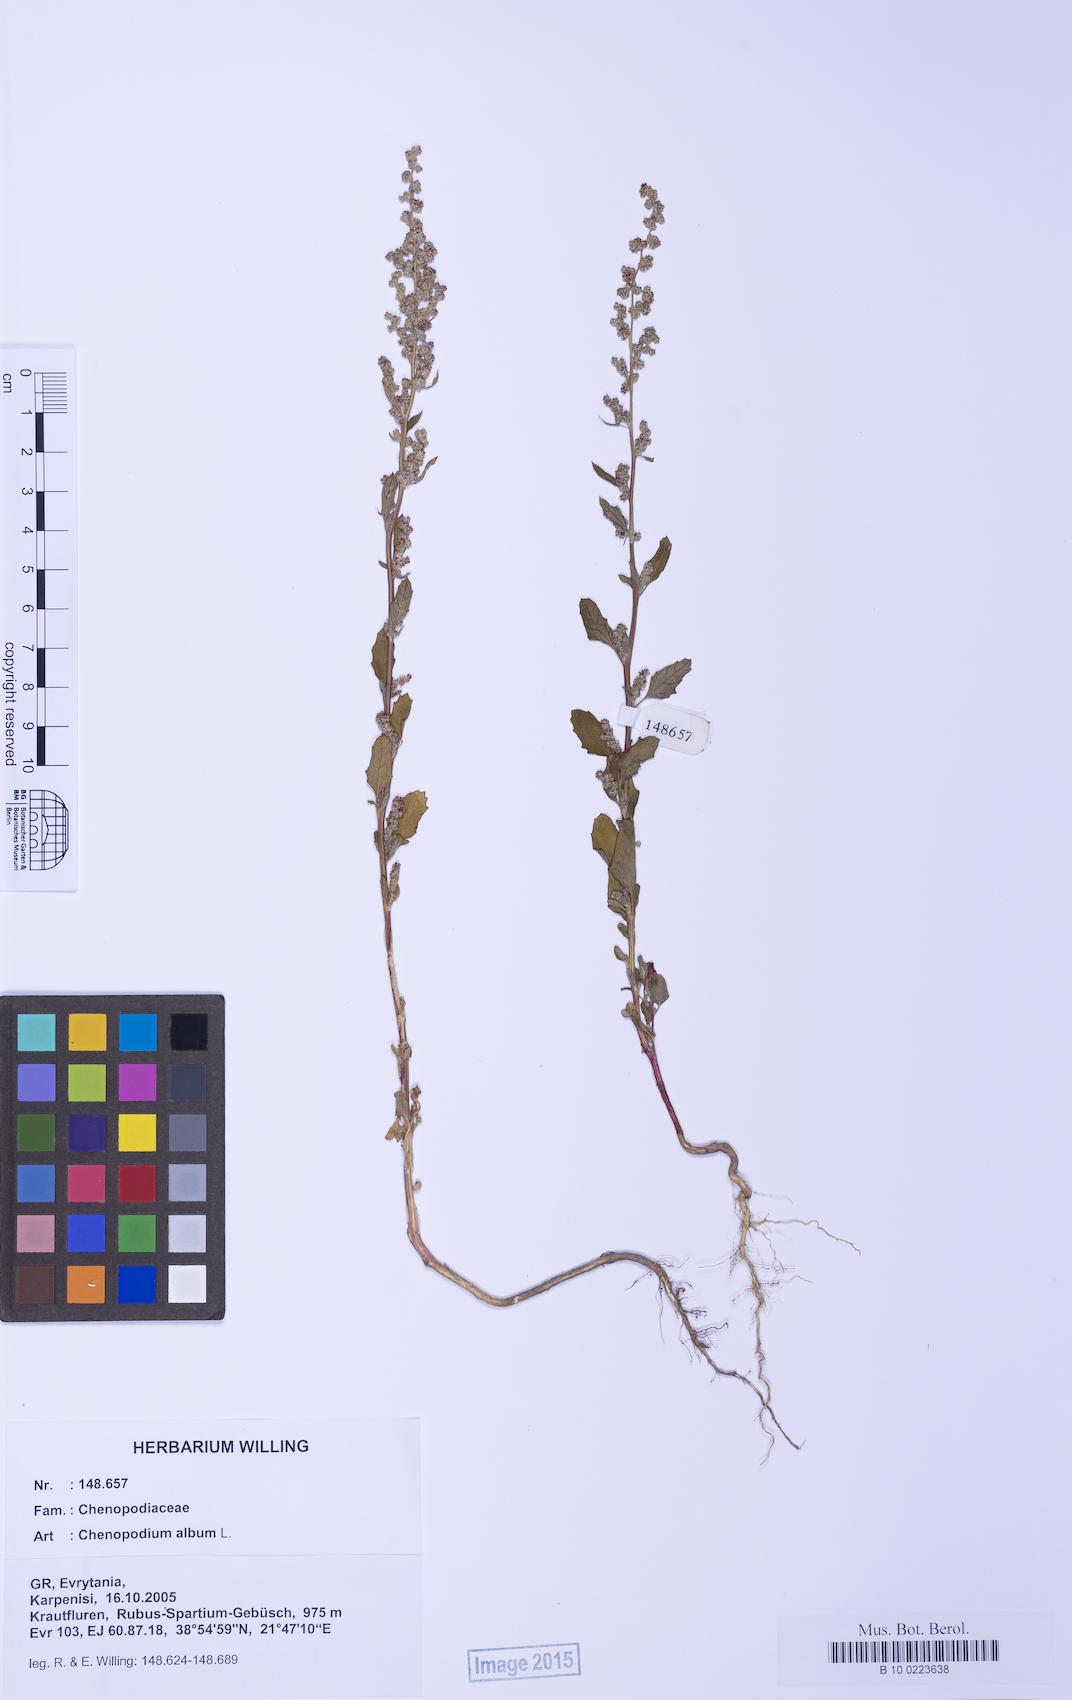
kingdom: Plantae
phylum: Tracheophyta
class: Magnoliopsida
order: Caryophyllales
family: Amaranthaceae
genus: Chenopodium
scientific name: Chenopodium album
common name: Fat-hen
